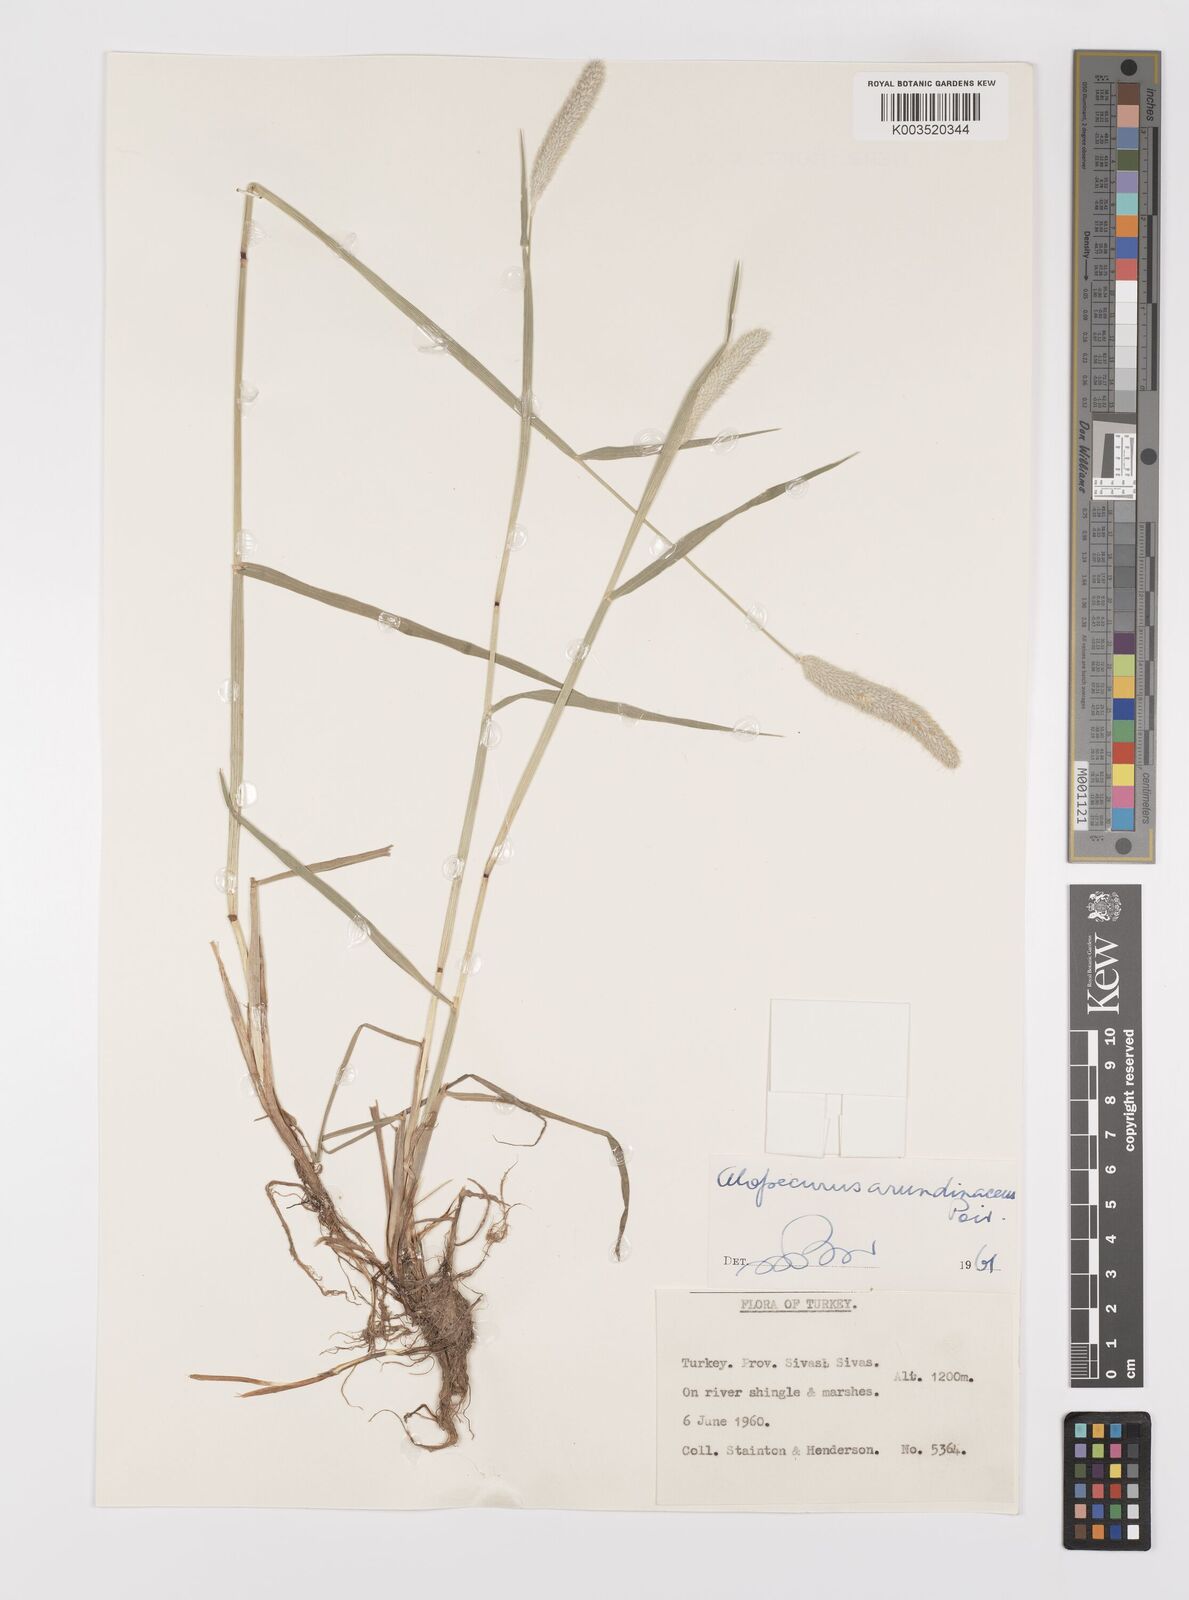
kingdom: Plantae
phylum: Tracheophyta
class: Liliopsida
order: Poales
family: Poaceae
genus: Alopecurus
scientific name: Alopecurus arundinaceus
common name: Creeping meadow foxtail
